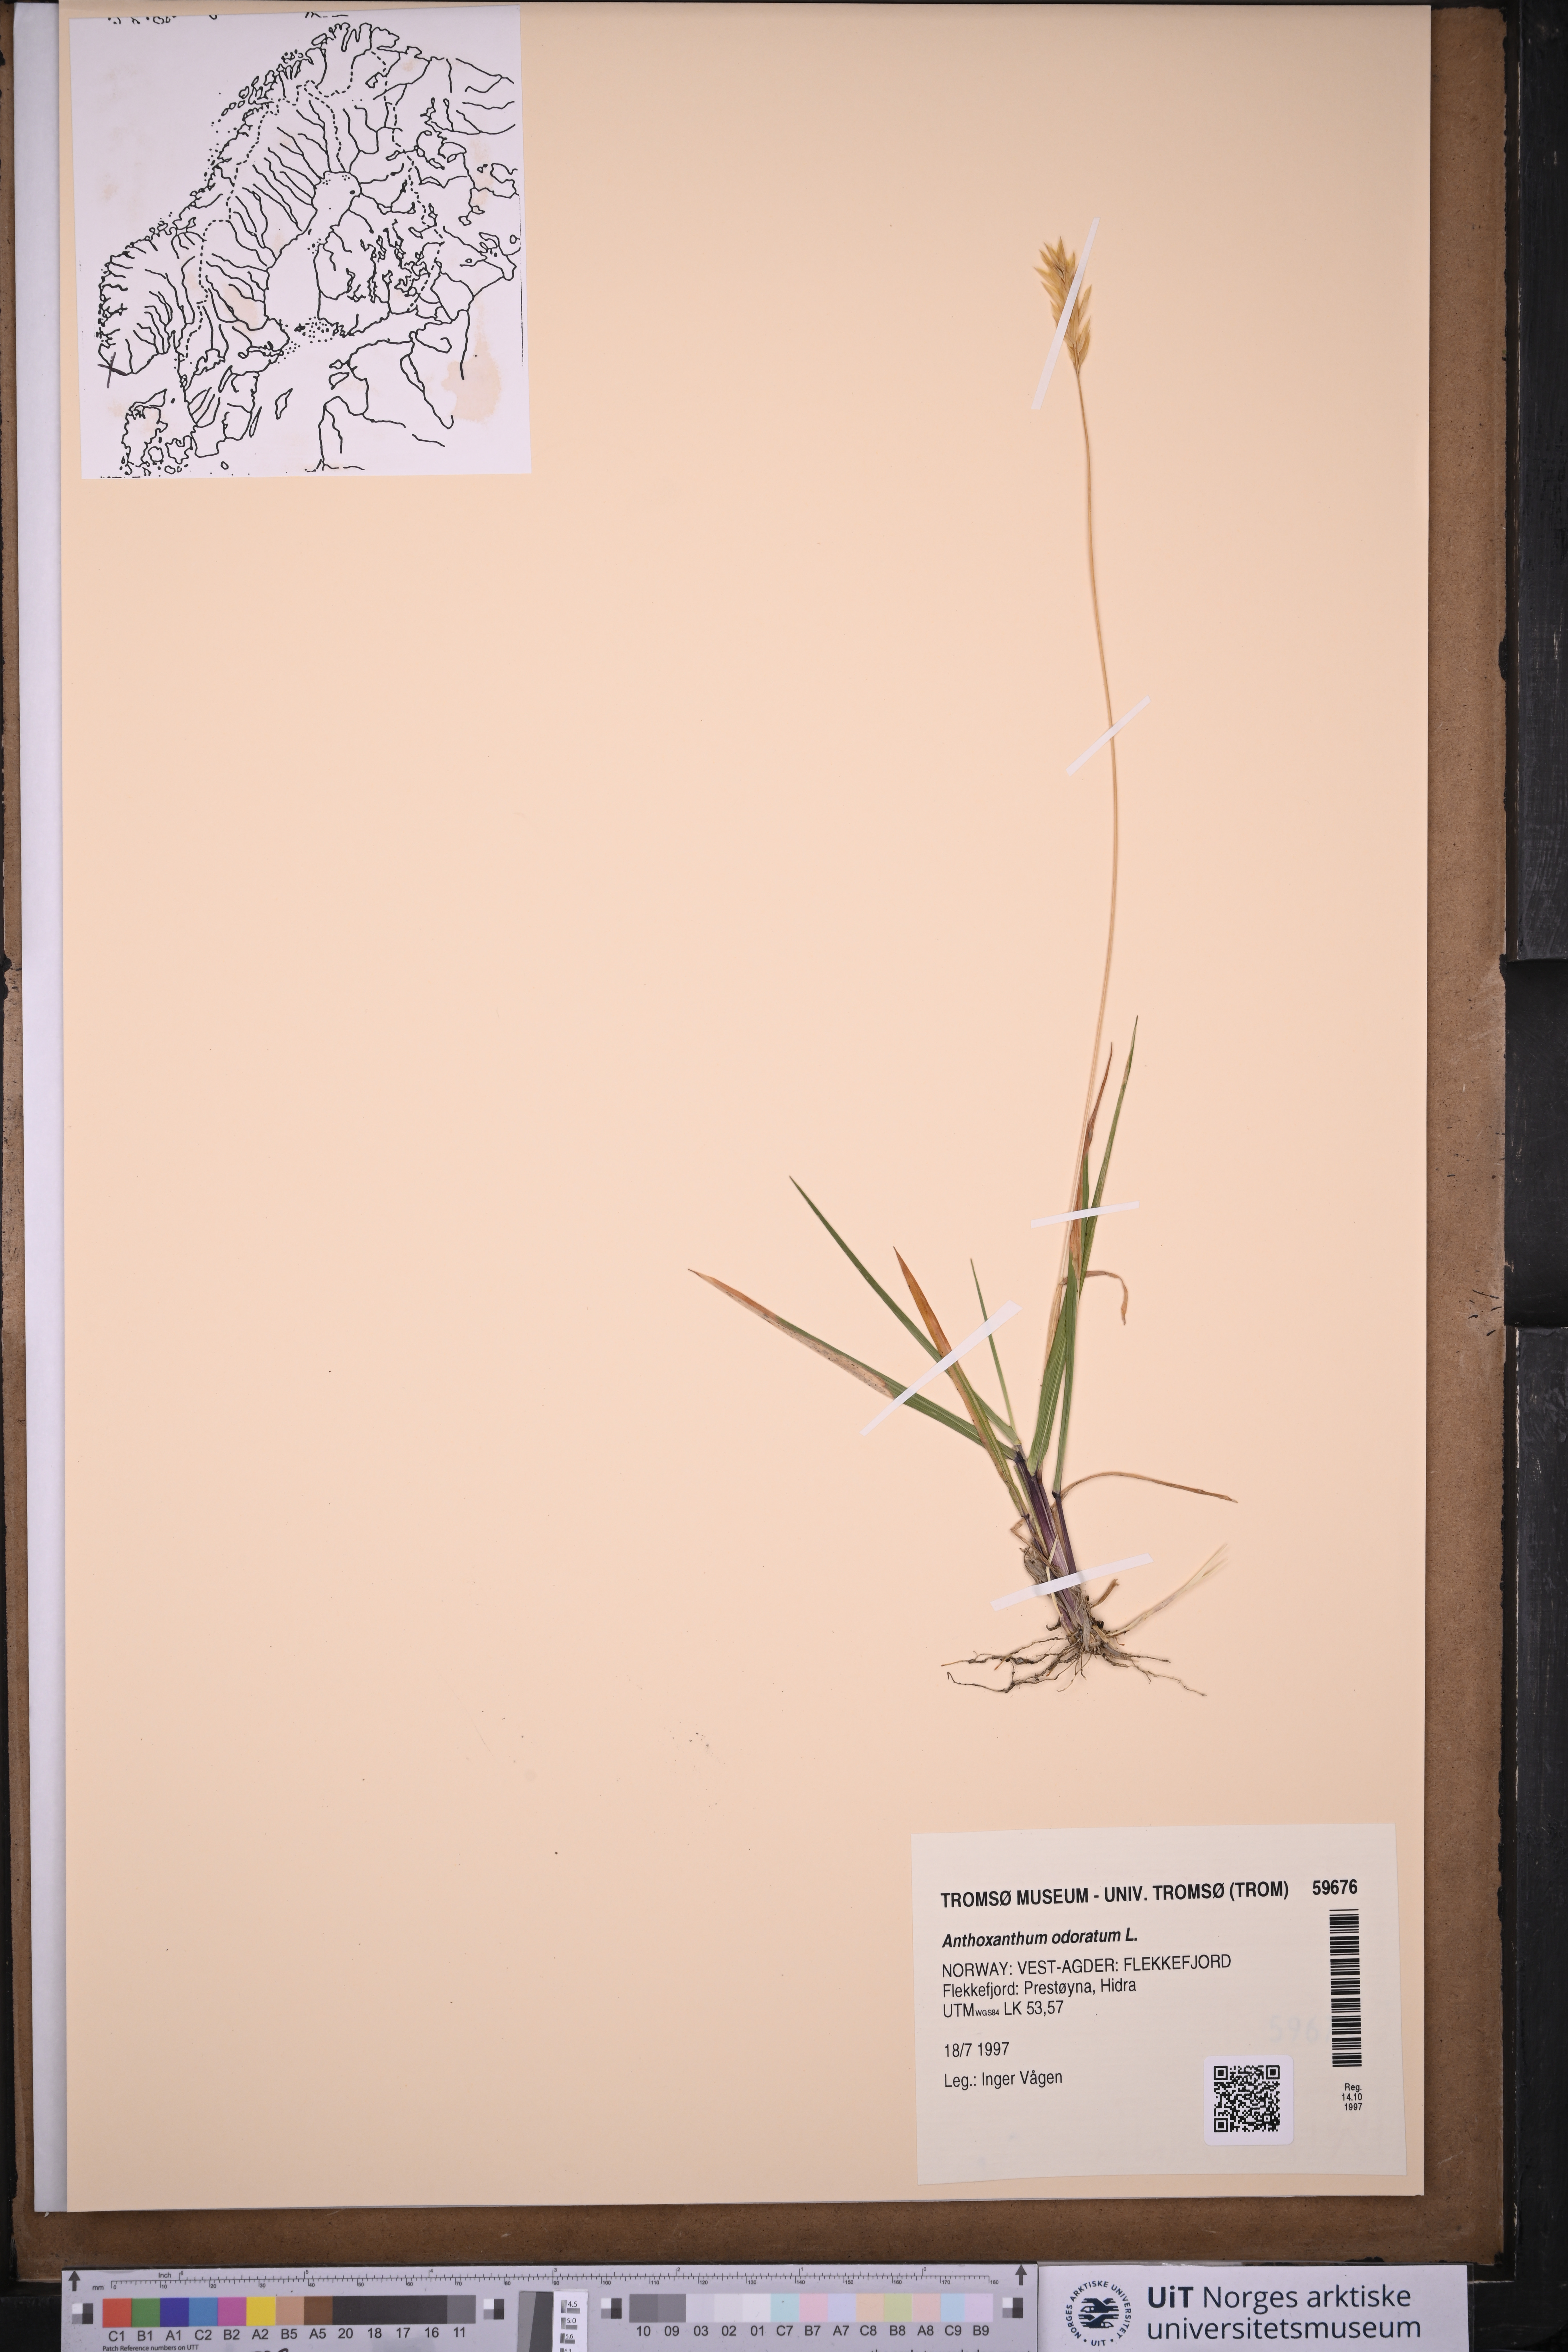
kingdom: Plantae
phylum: Tracheophyta
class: Liliopsida
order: Poales
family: Poaceae
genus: Anthoxanthum
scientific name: Anthoxanthum odoratum
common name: Sweet vernalgrass
